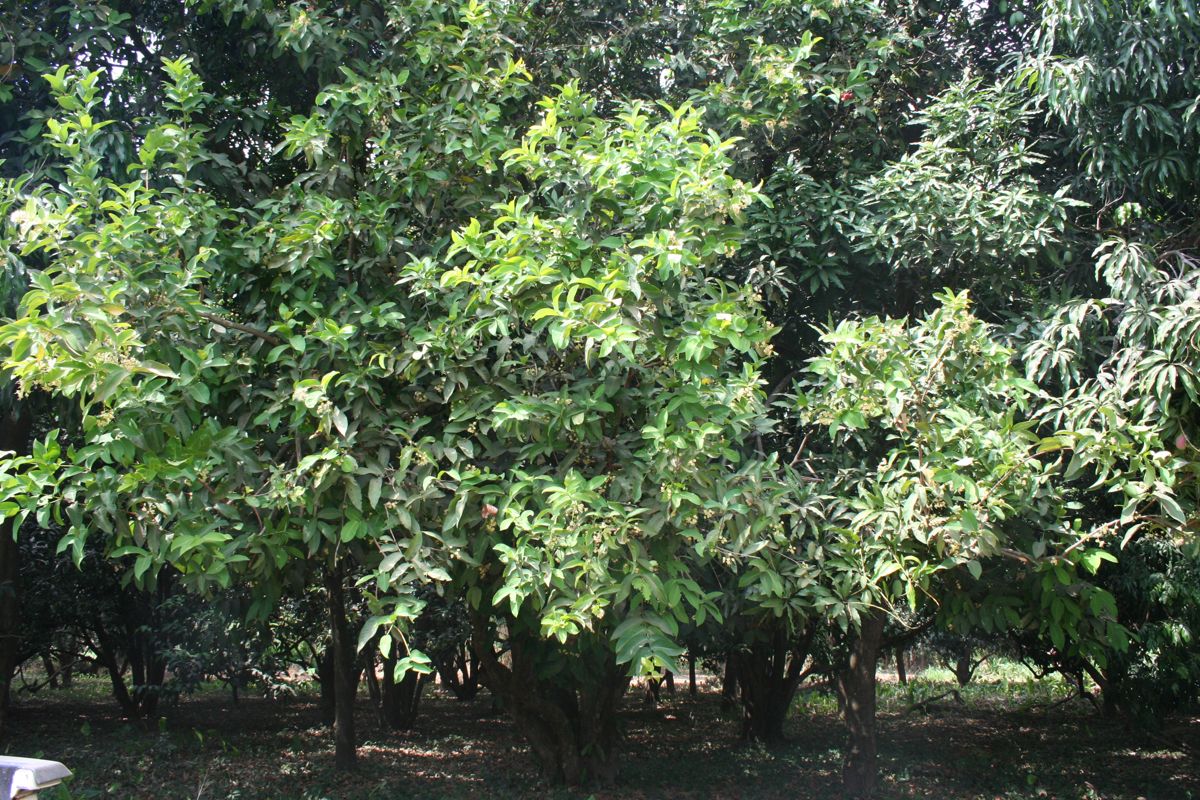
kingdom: Plantae
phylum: Tracheophyta
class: Magnoliopsida
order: Fabales
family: Fabaceae
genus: Lonchocarpus
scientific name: Lonchocarpus minimiflorus
